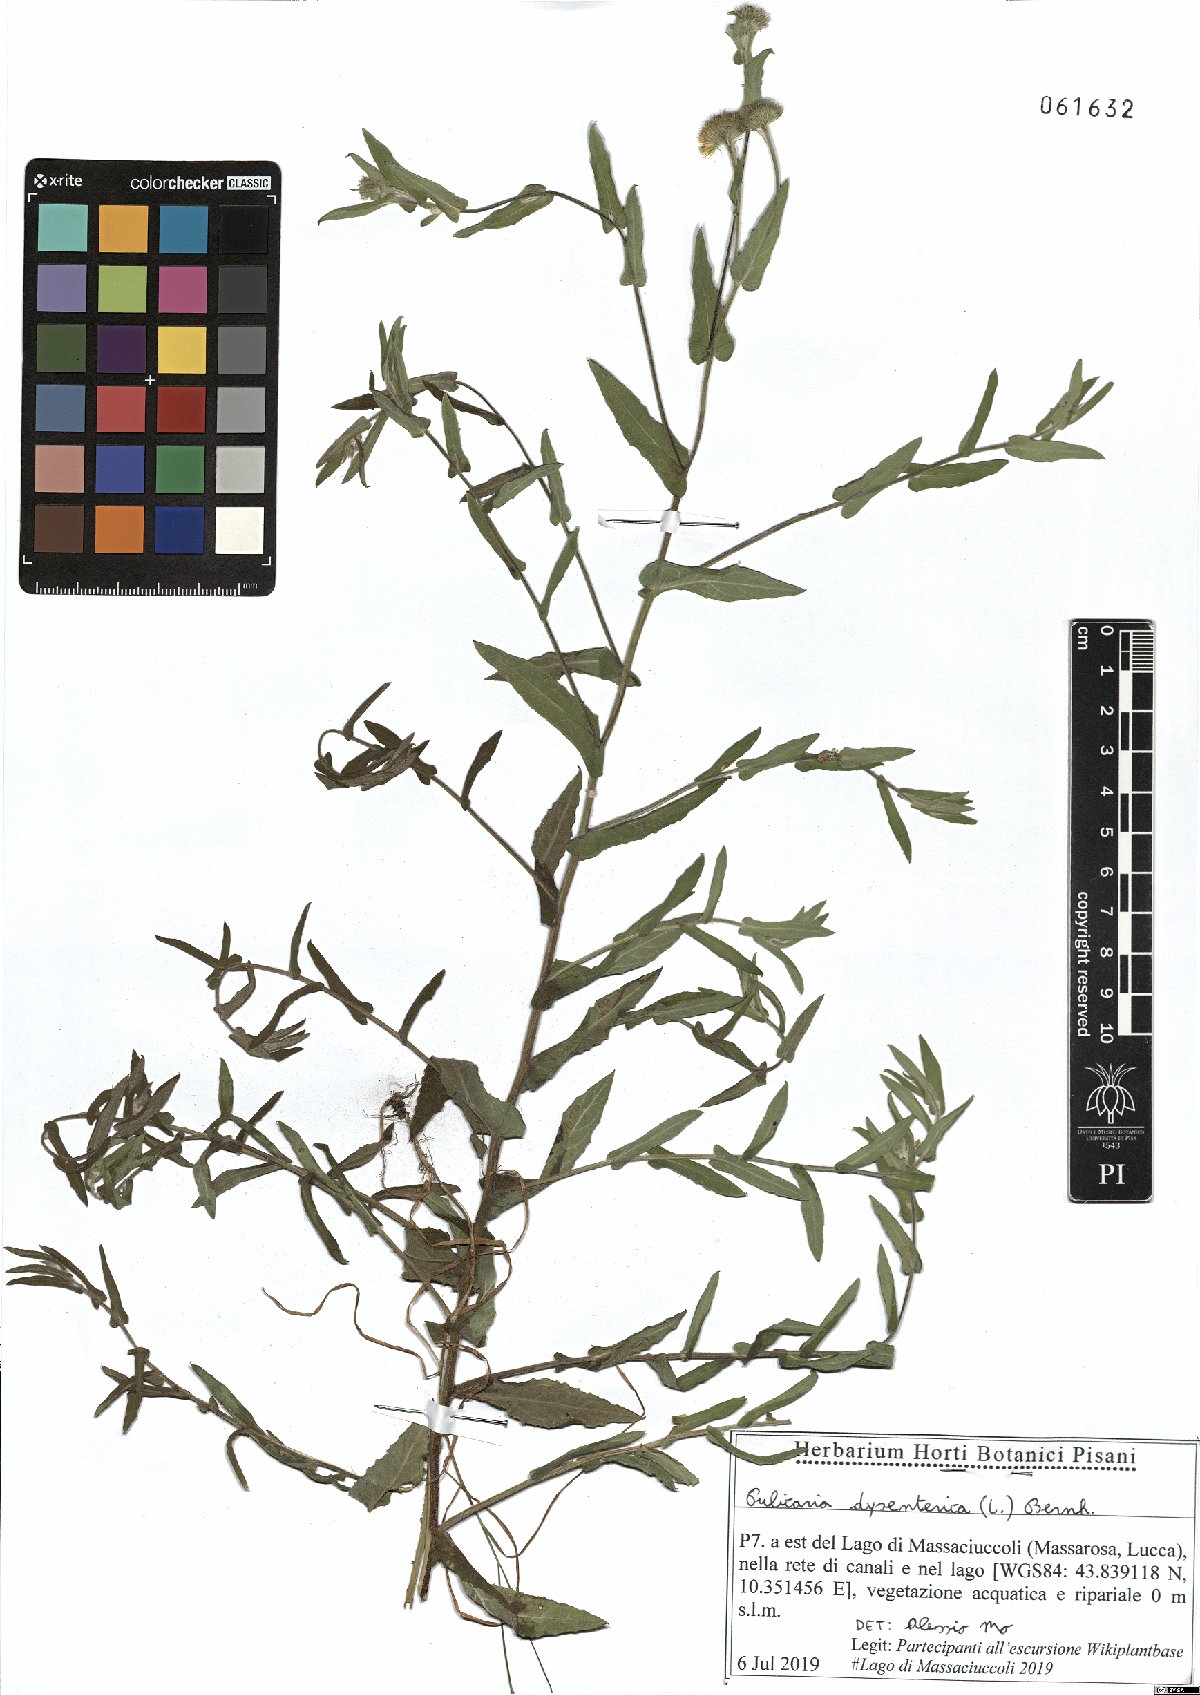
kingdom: Plantae
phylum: Tracheophyta
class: Magnoliopsida
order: Asterales
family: Asteraceae
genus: Pulicaria
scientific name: Pulicaria dysenterica
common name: Common fleabane
